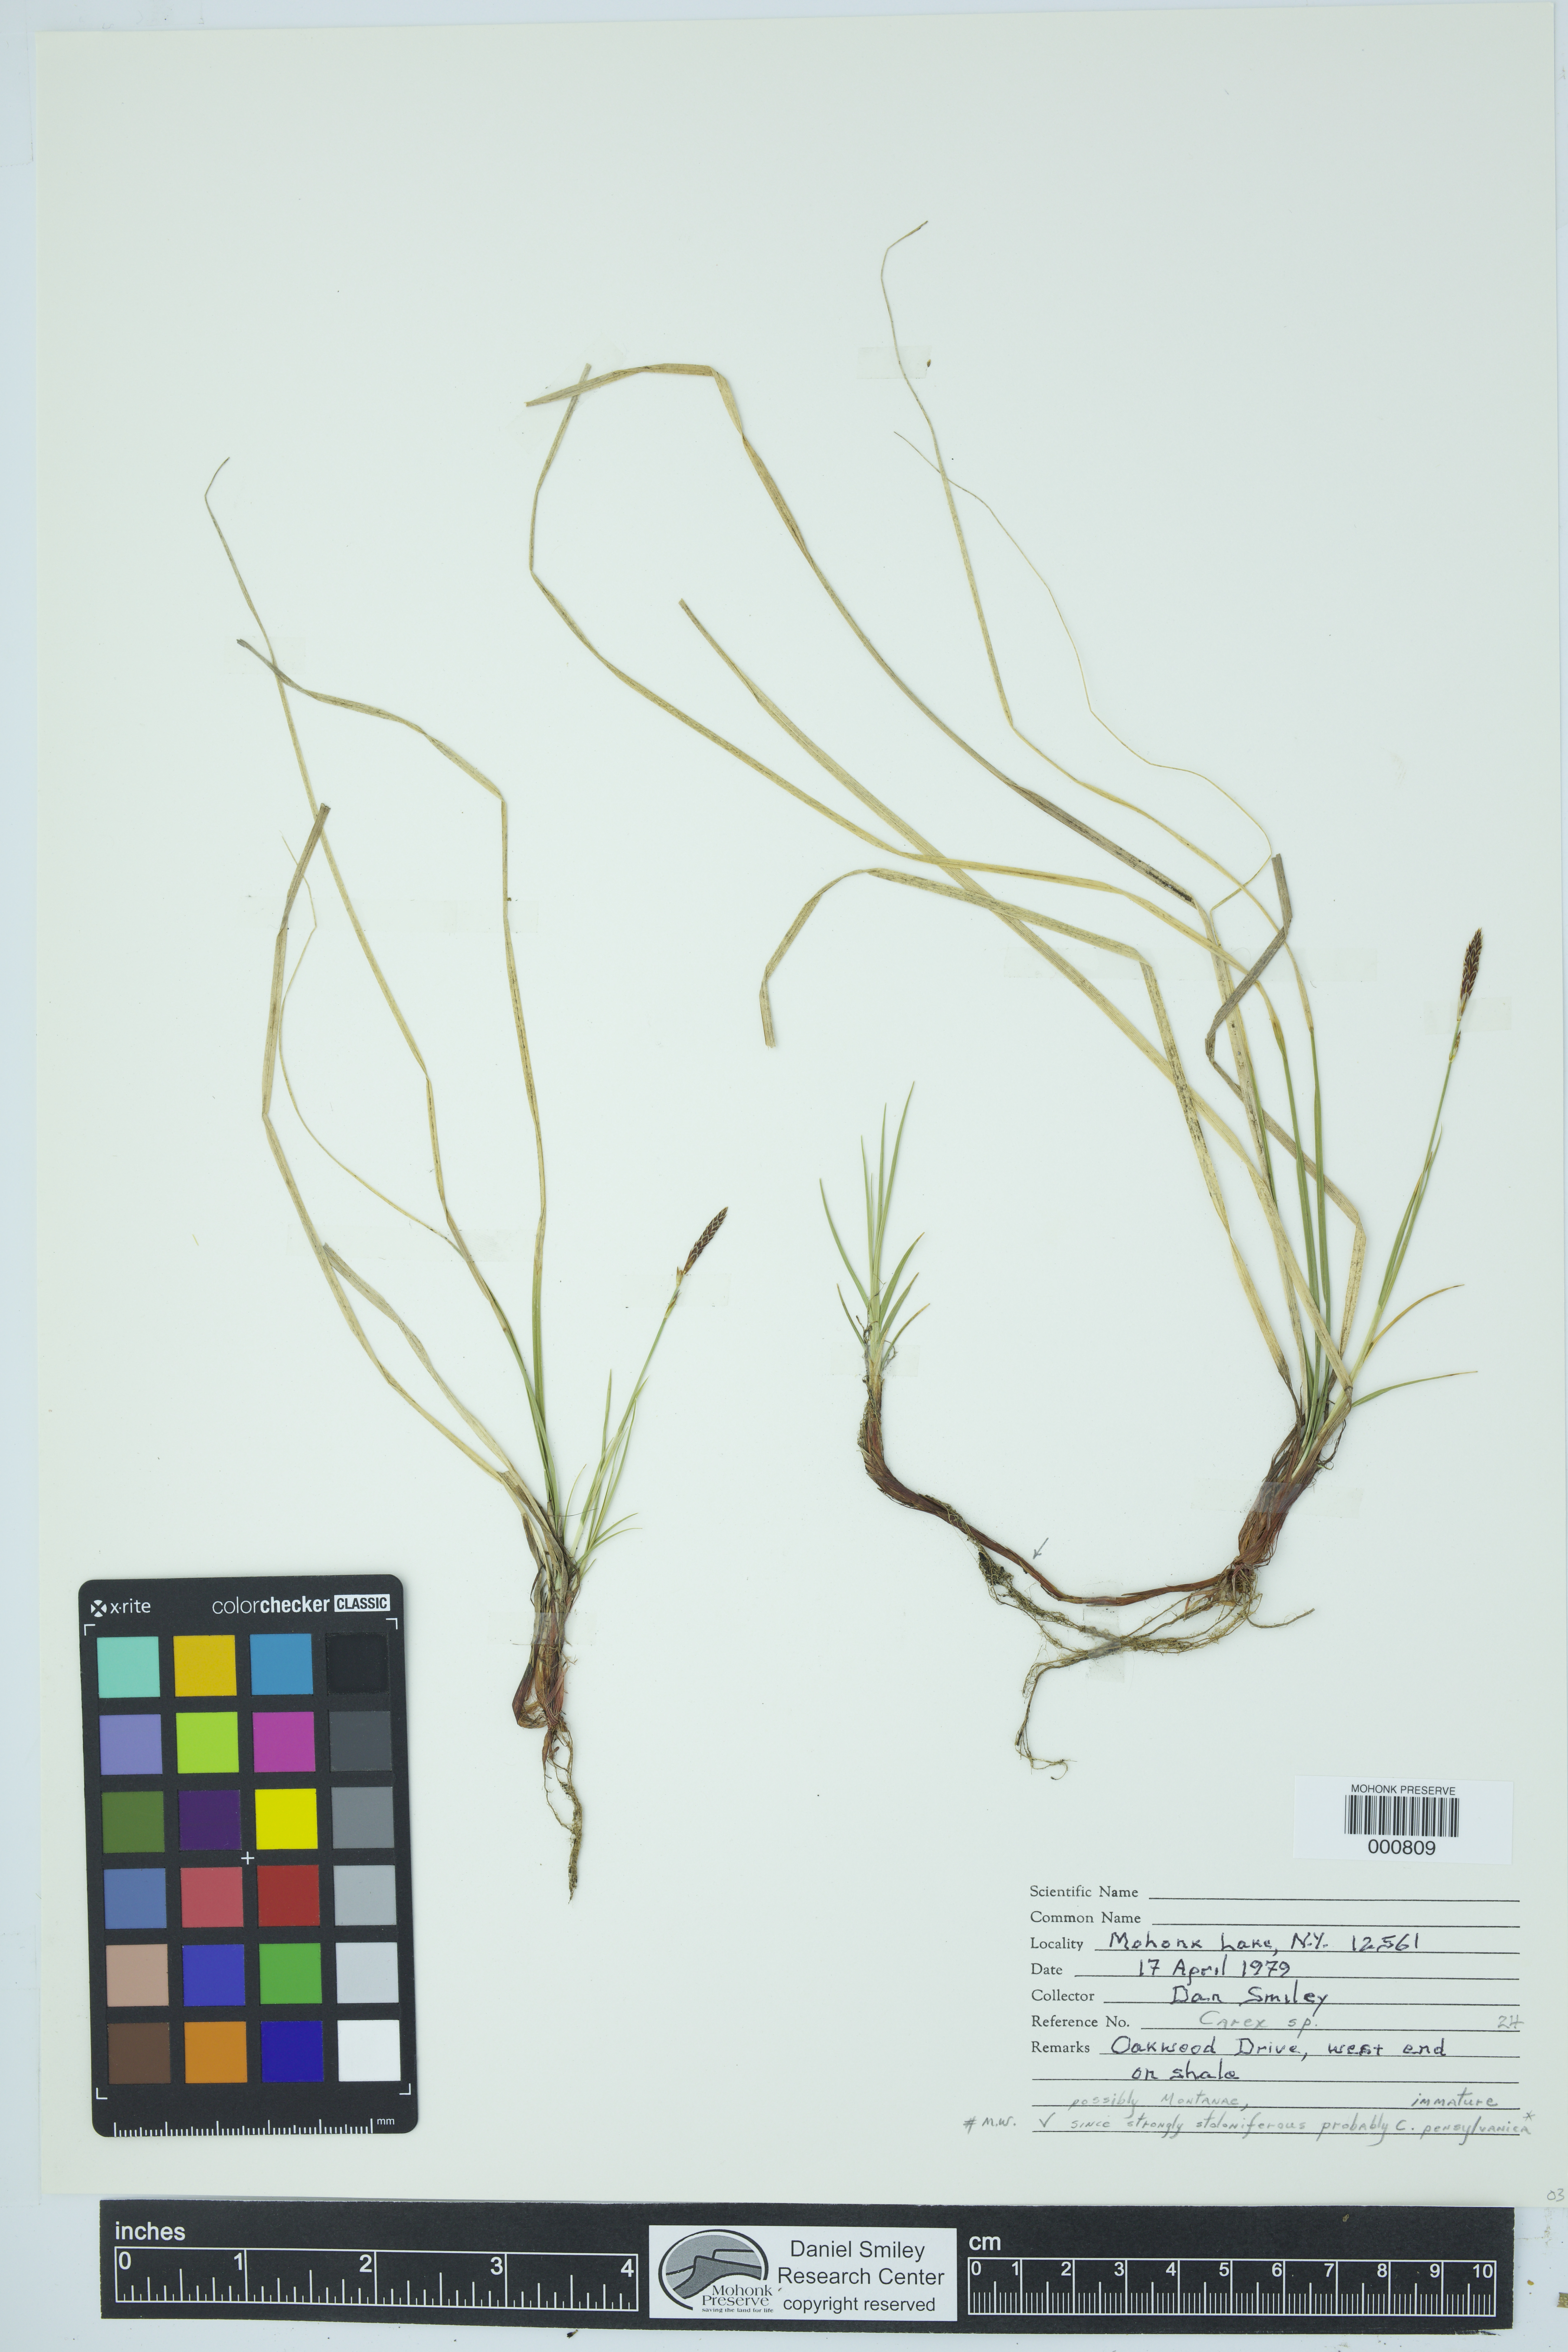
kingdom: Plantae
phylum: Tracheophyta
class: Liliopsida
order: Poales
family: Cyperaceae
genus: Carex
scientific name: Carex pensylvanica
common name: Common oak sedge
